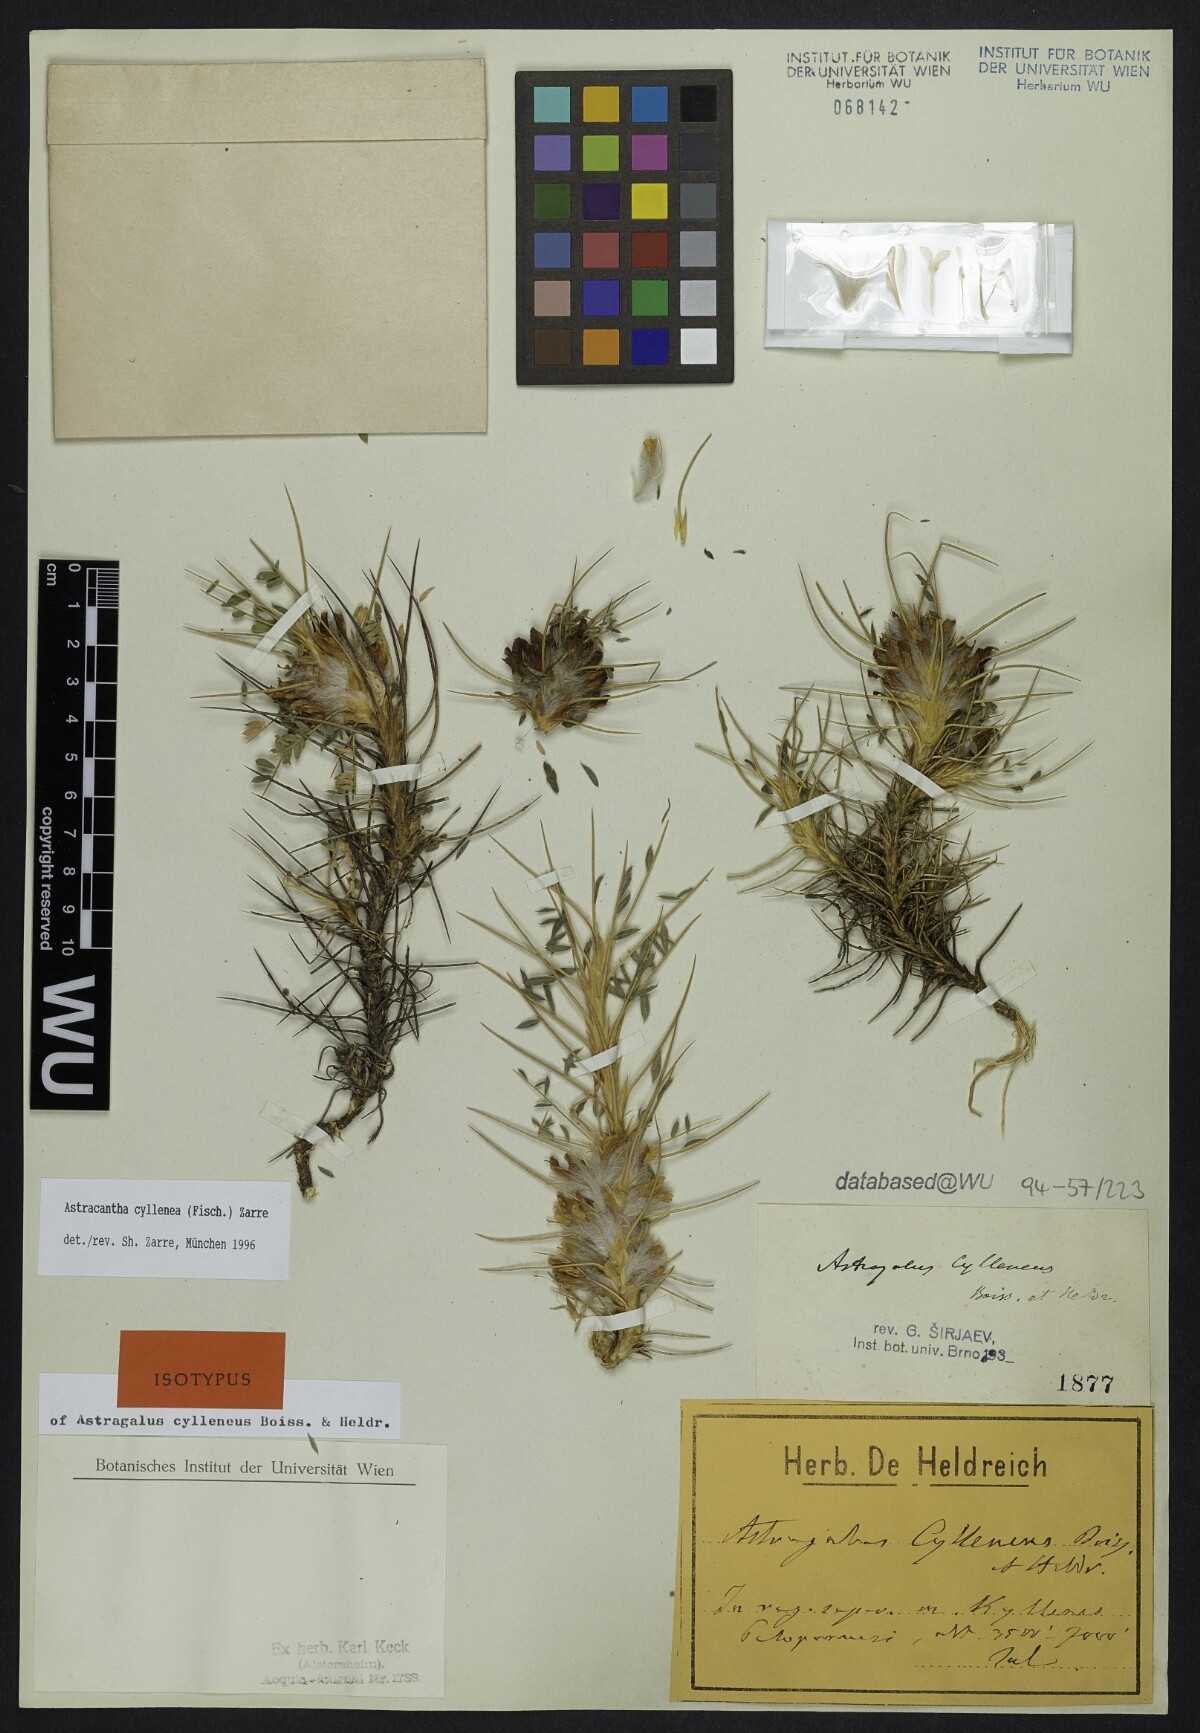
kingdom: Plantae
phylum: Tracheophyta
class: Magnoliopsida
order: Fabales
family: Fabaceae
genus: Astragalus
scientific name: Astragalus cylleneus
